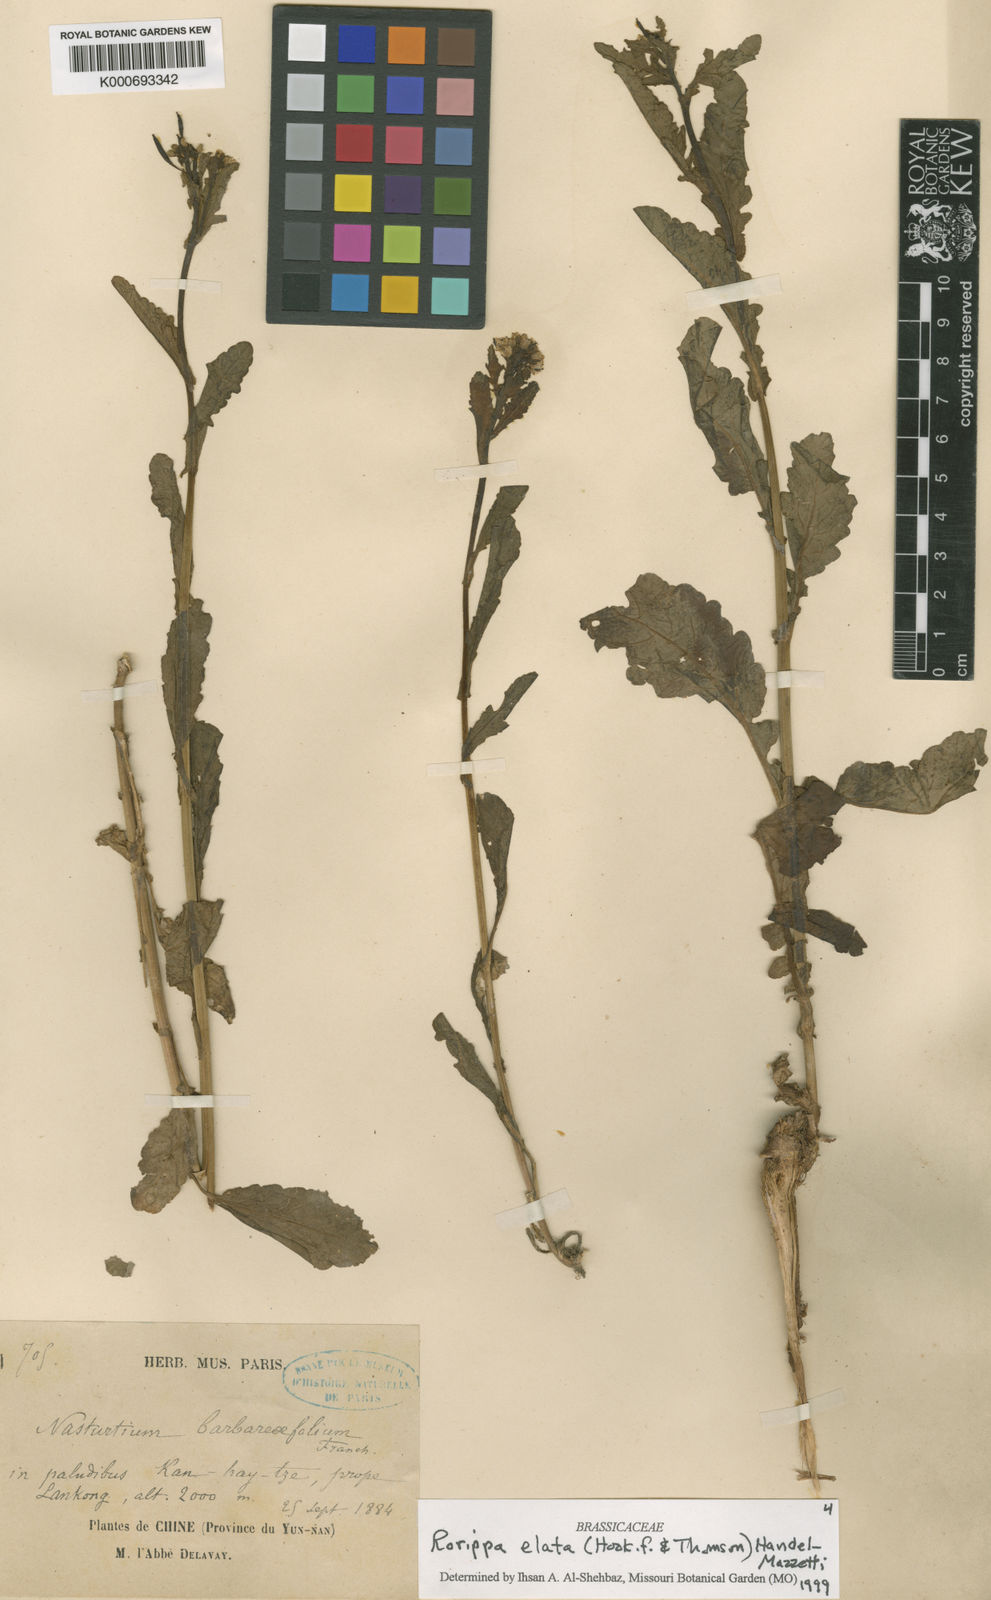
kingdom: Plantae
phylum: Tracheophyta
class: Magnoliopsida
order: Brassicales
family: Brassicaceae
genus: Rorippa
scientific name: Rorippa elata
